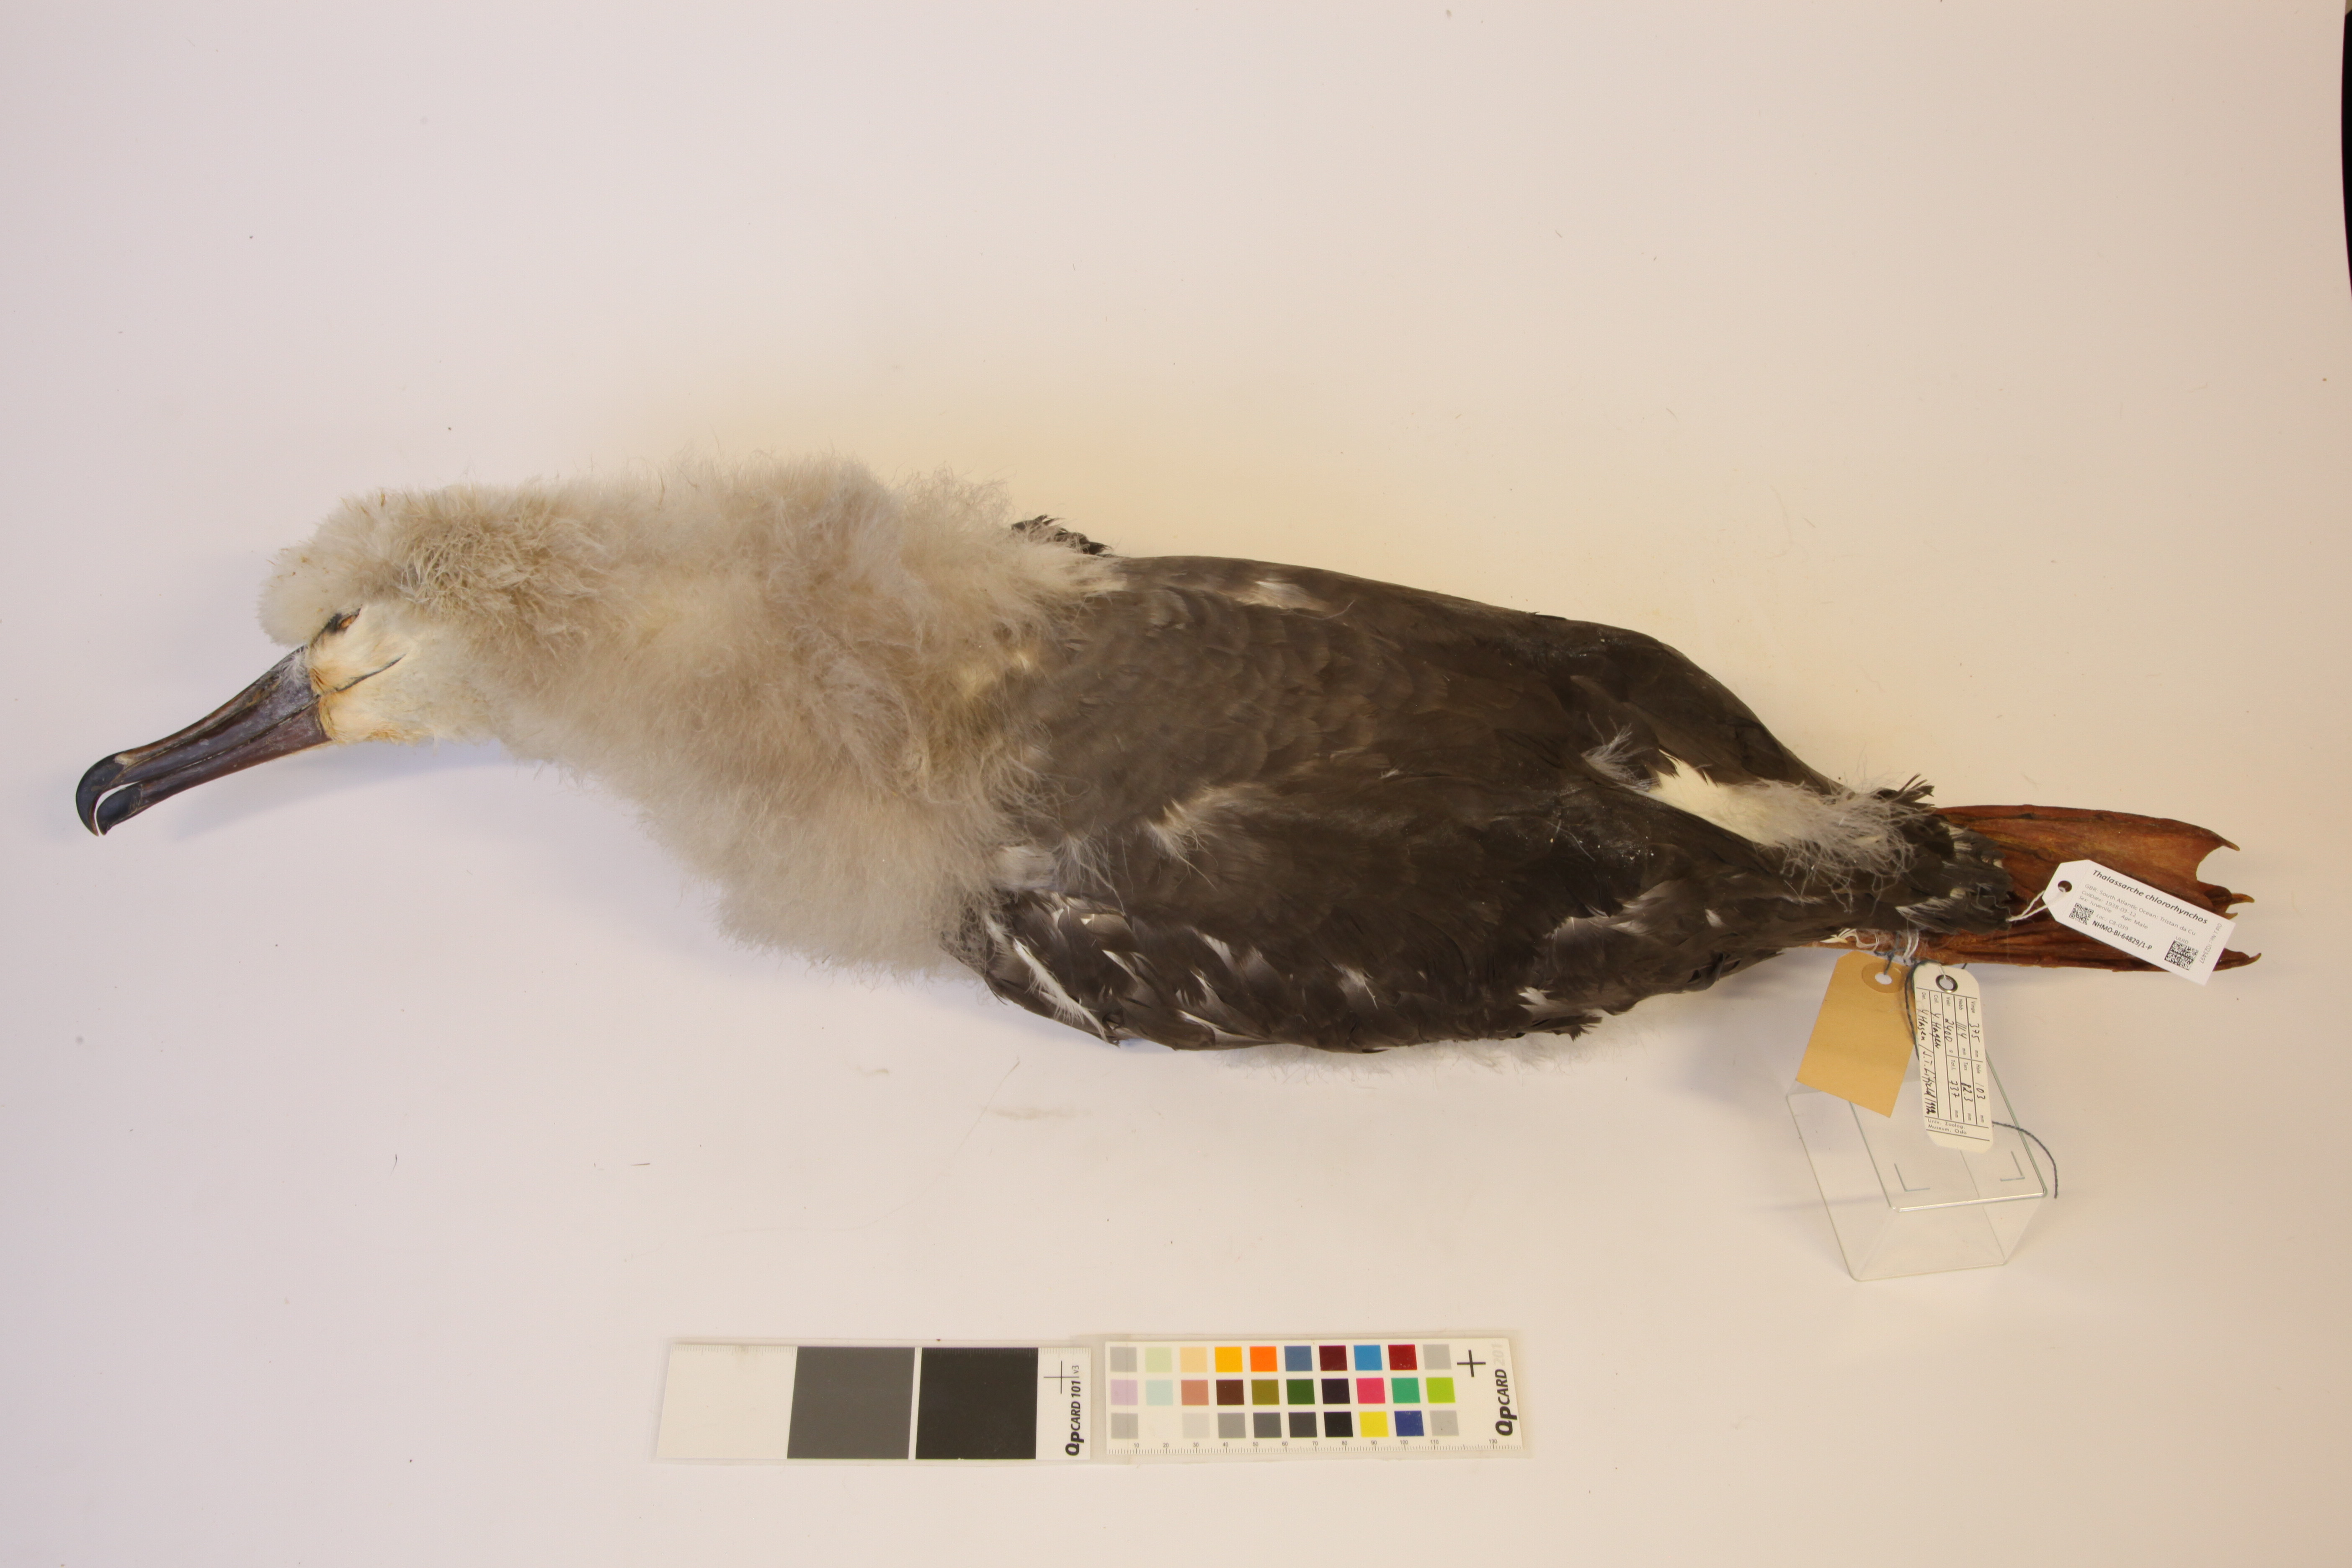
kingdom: Animalia
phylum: Chordata
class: Aves
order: Procellariiformes
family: Diomedeidae
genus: Thalassarche
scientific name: Thalassarche chlororhynchos
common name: Atlantic yellow-nosed albatross
